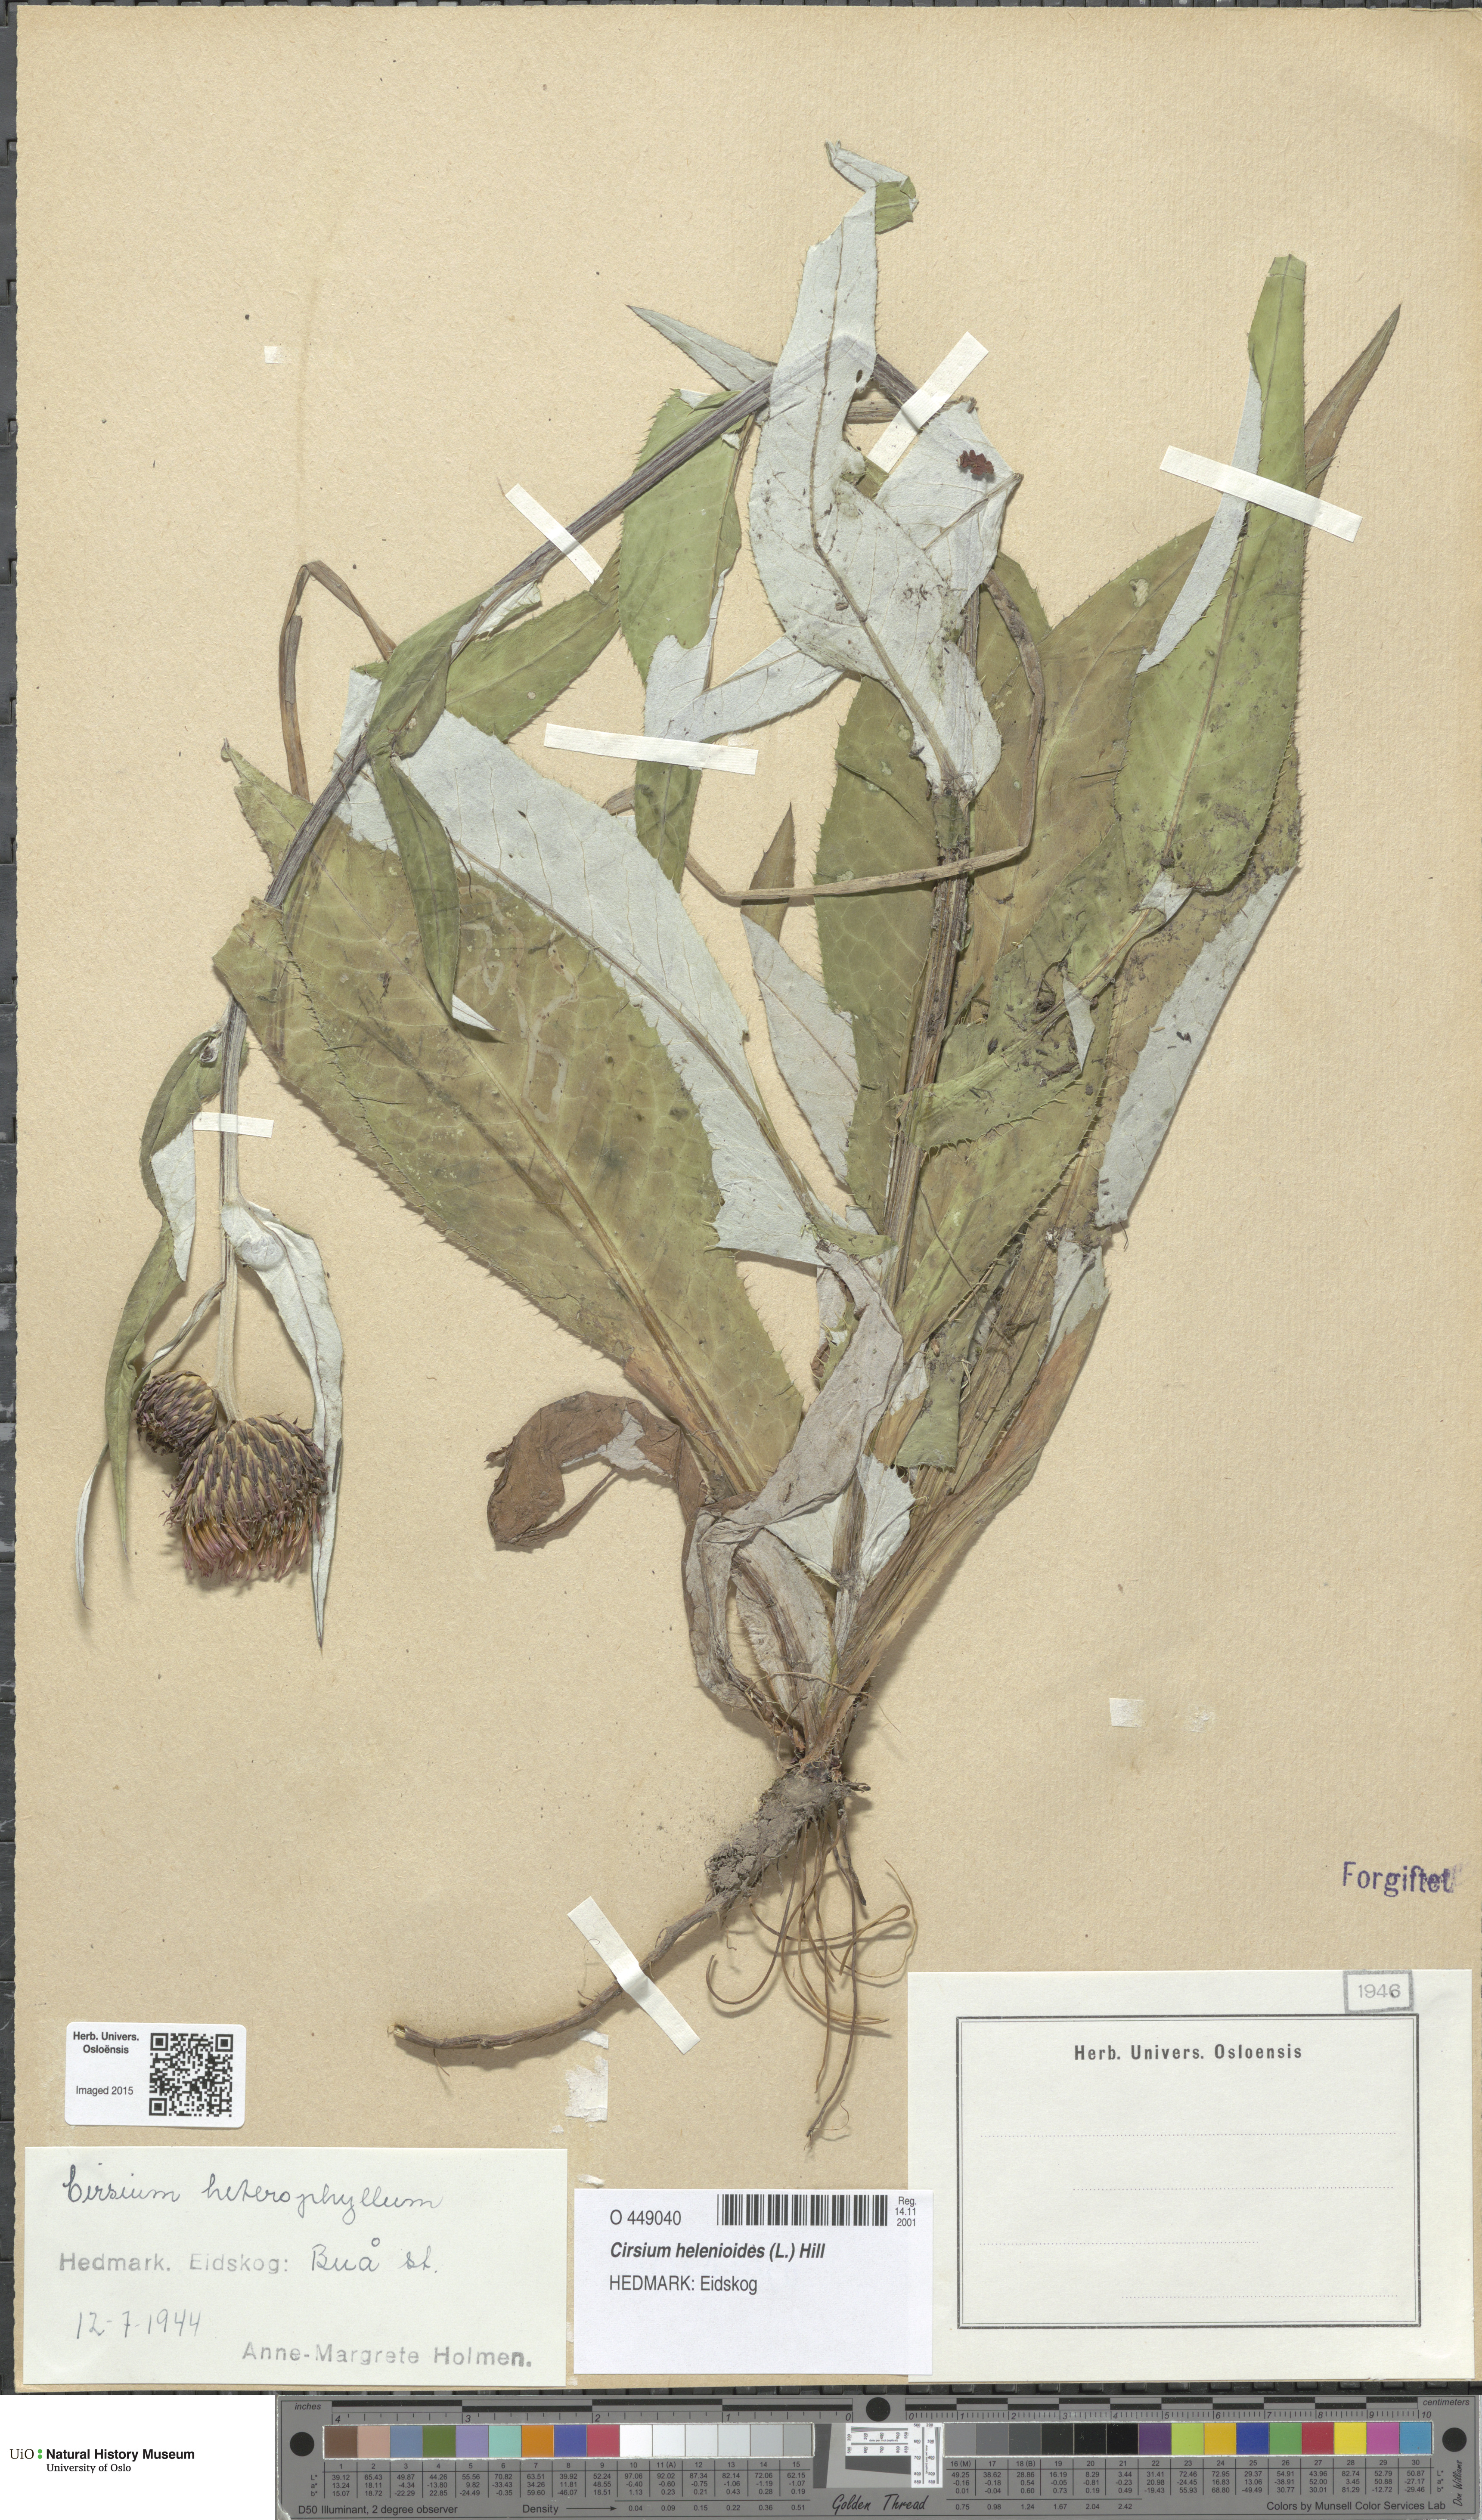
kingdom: Plantae
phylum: Tracheophyta
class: Magnoliopsida
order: Asterales
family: Asteraceae
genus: Cirsium
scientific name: Cirsium heterophyllum
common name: Melancholy thistle
